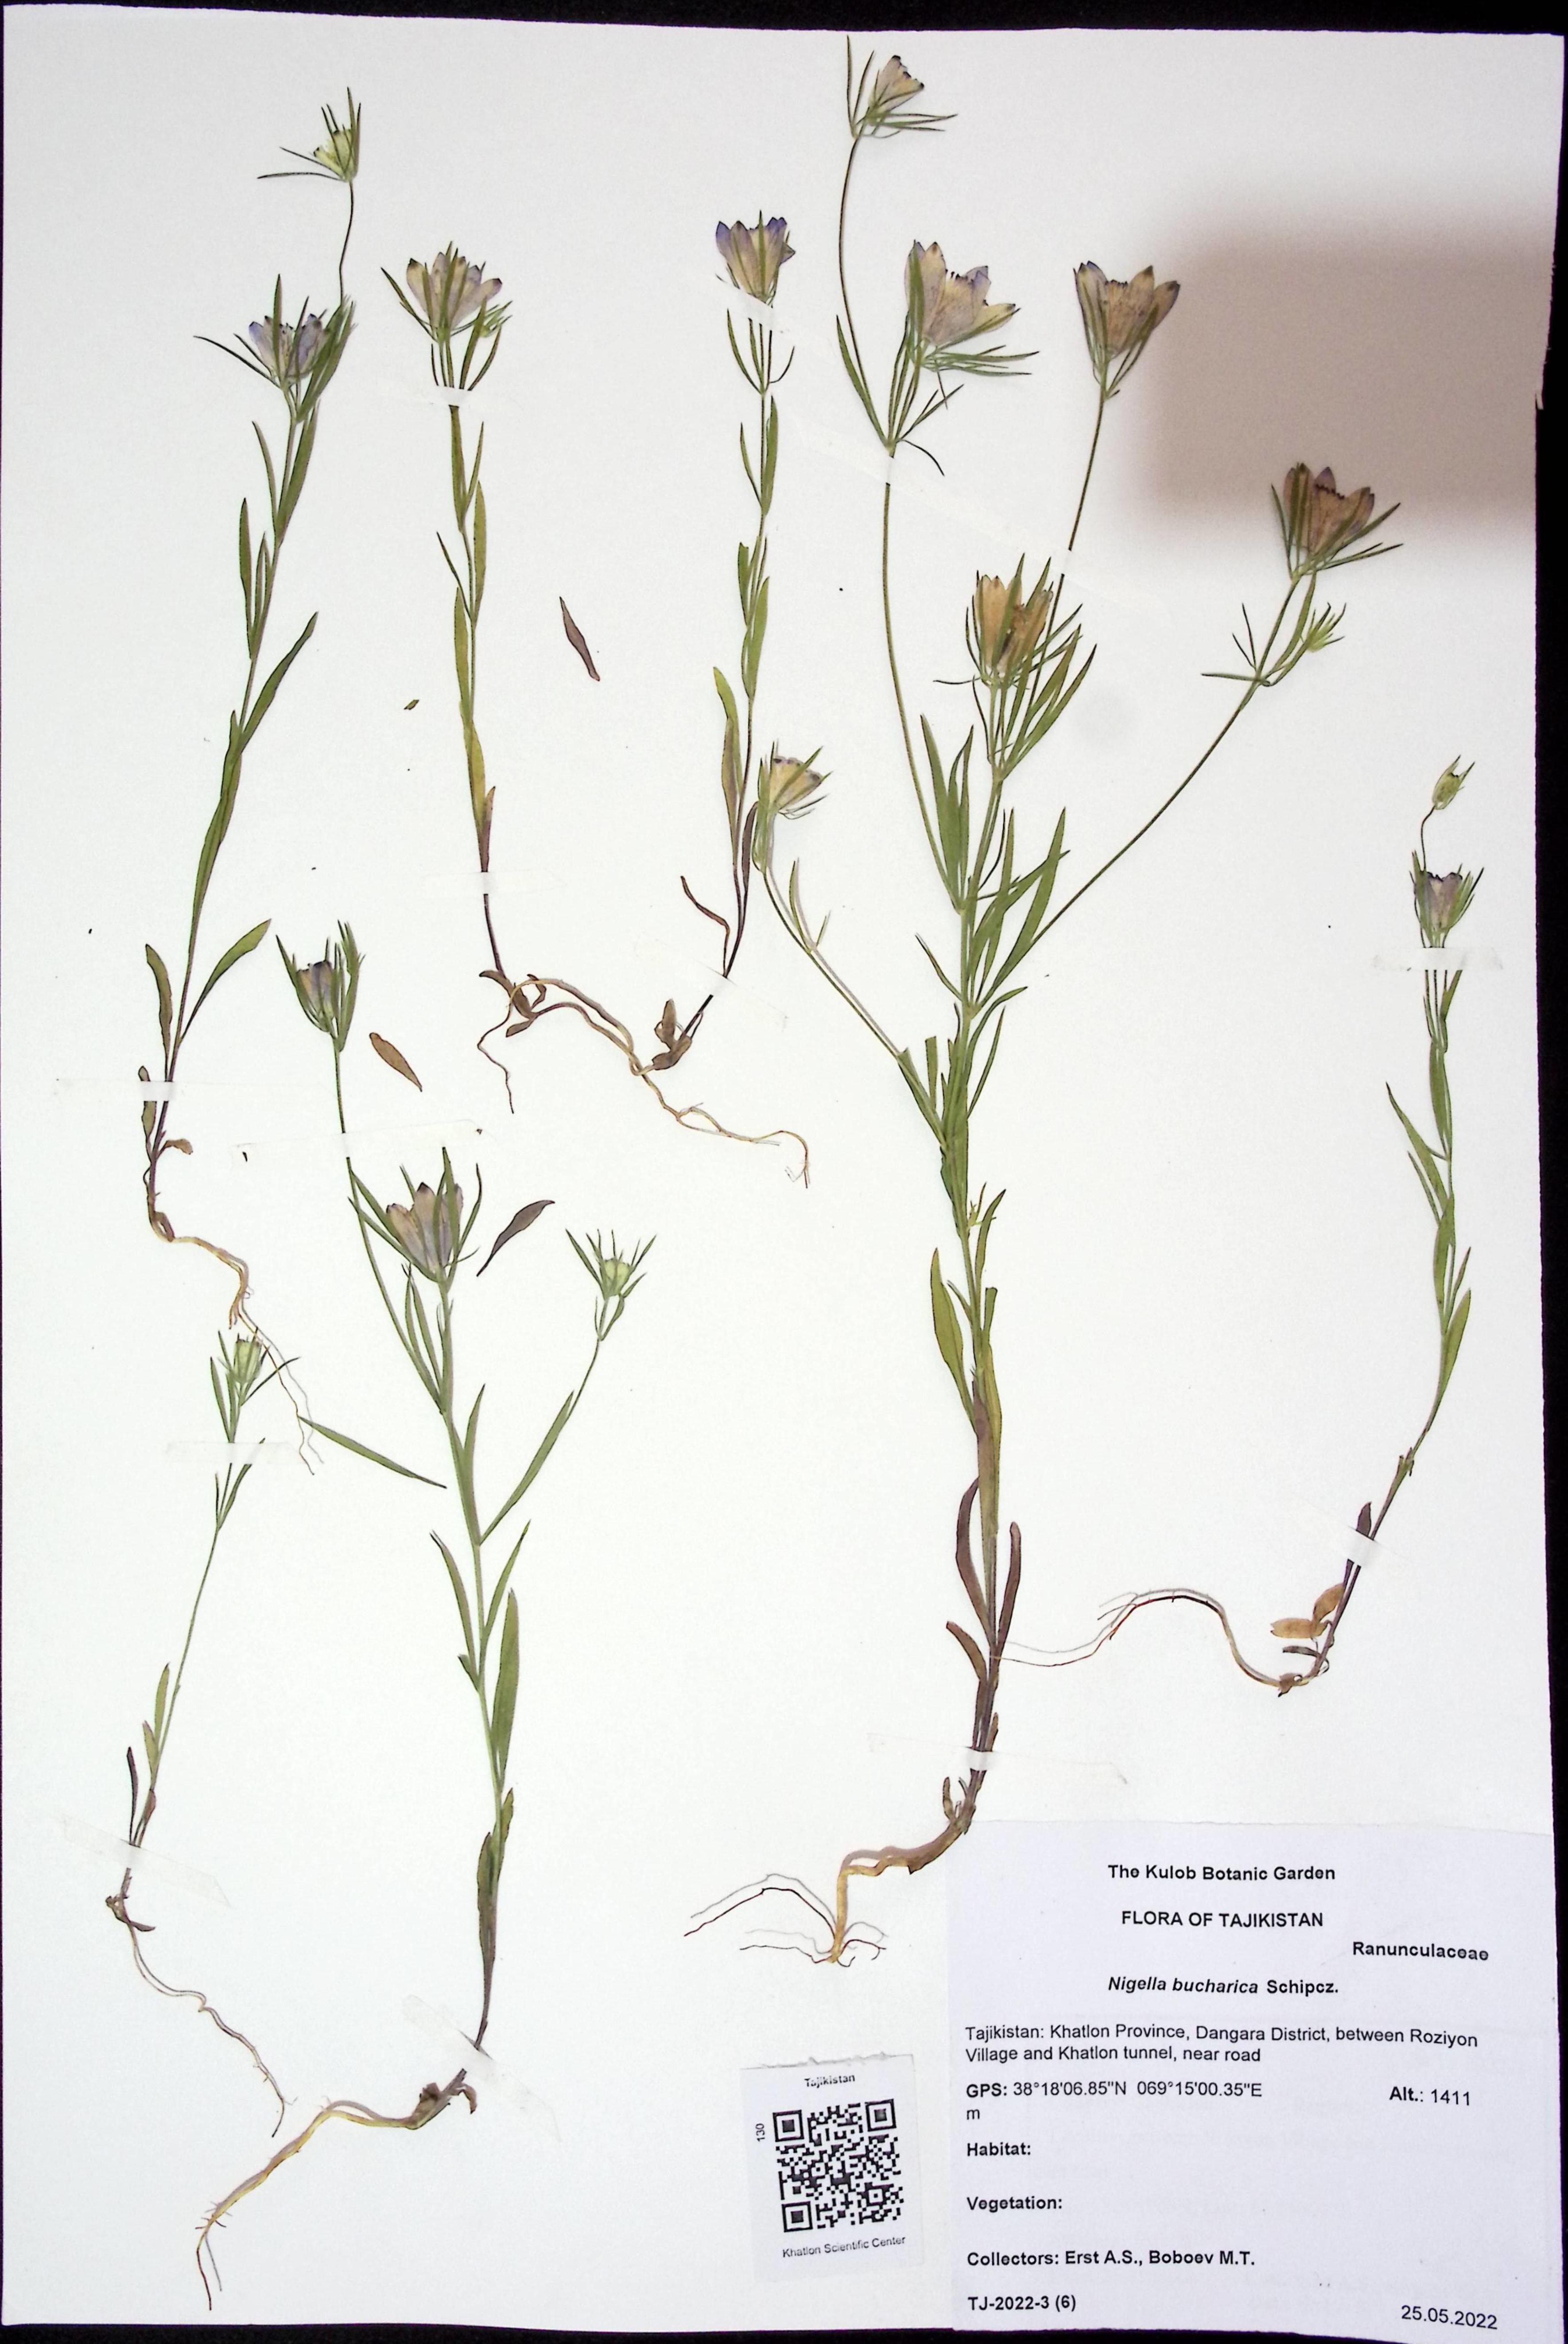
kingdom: Plantae
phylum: Tracheophyta
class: Magnoliopsida
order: Ranunculales
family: Ranunculaceae
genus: Komaroffia
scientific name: Komaroffia bucharica
